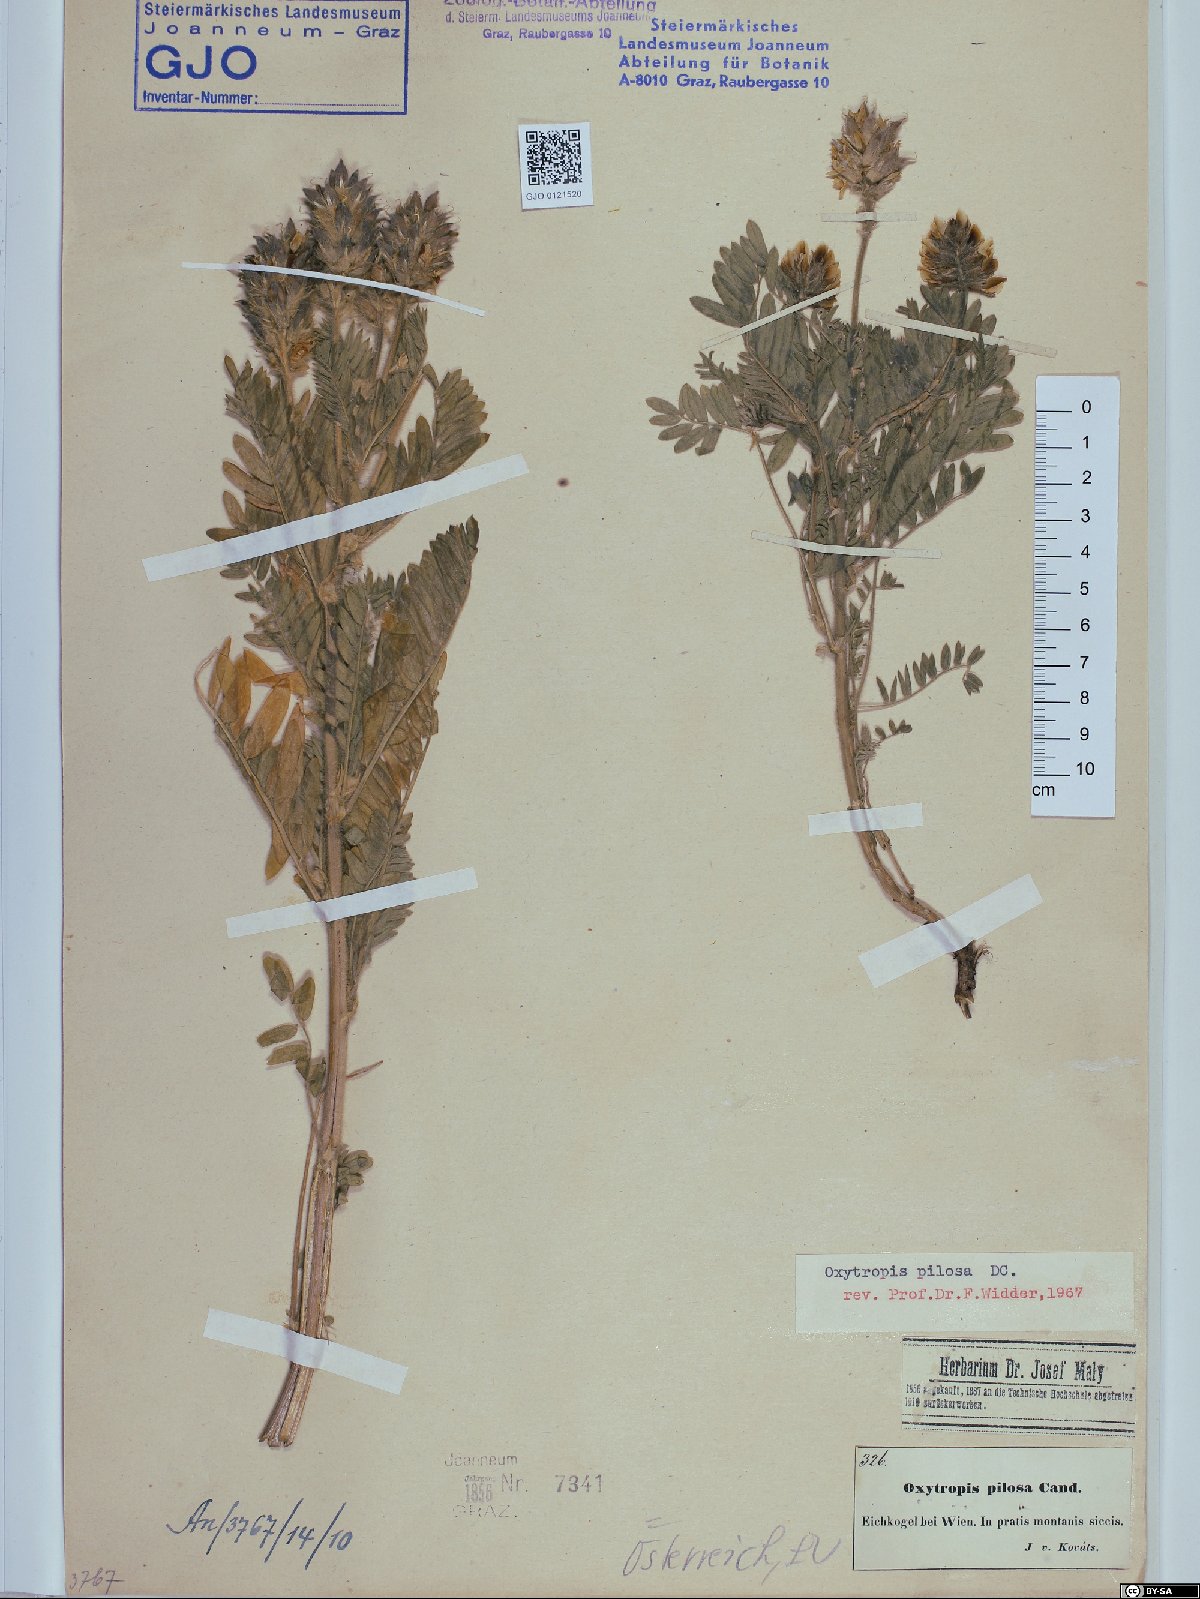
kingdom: Plantae
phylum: Tracheophyta
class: Magnoliopsida
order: Fabales
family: Fabaceae
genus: Oxytropis
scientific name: Oxytropis pilosa
